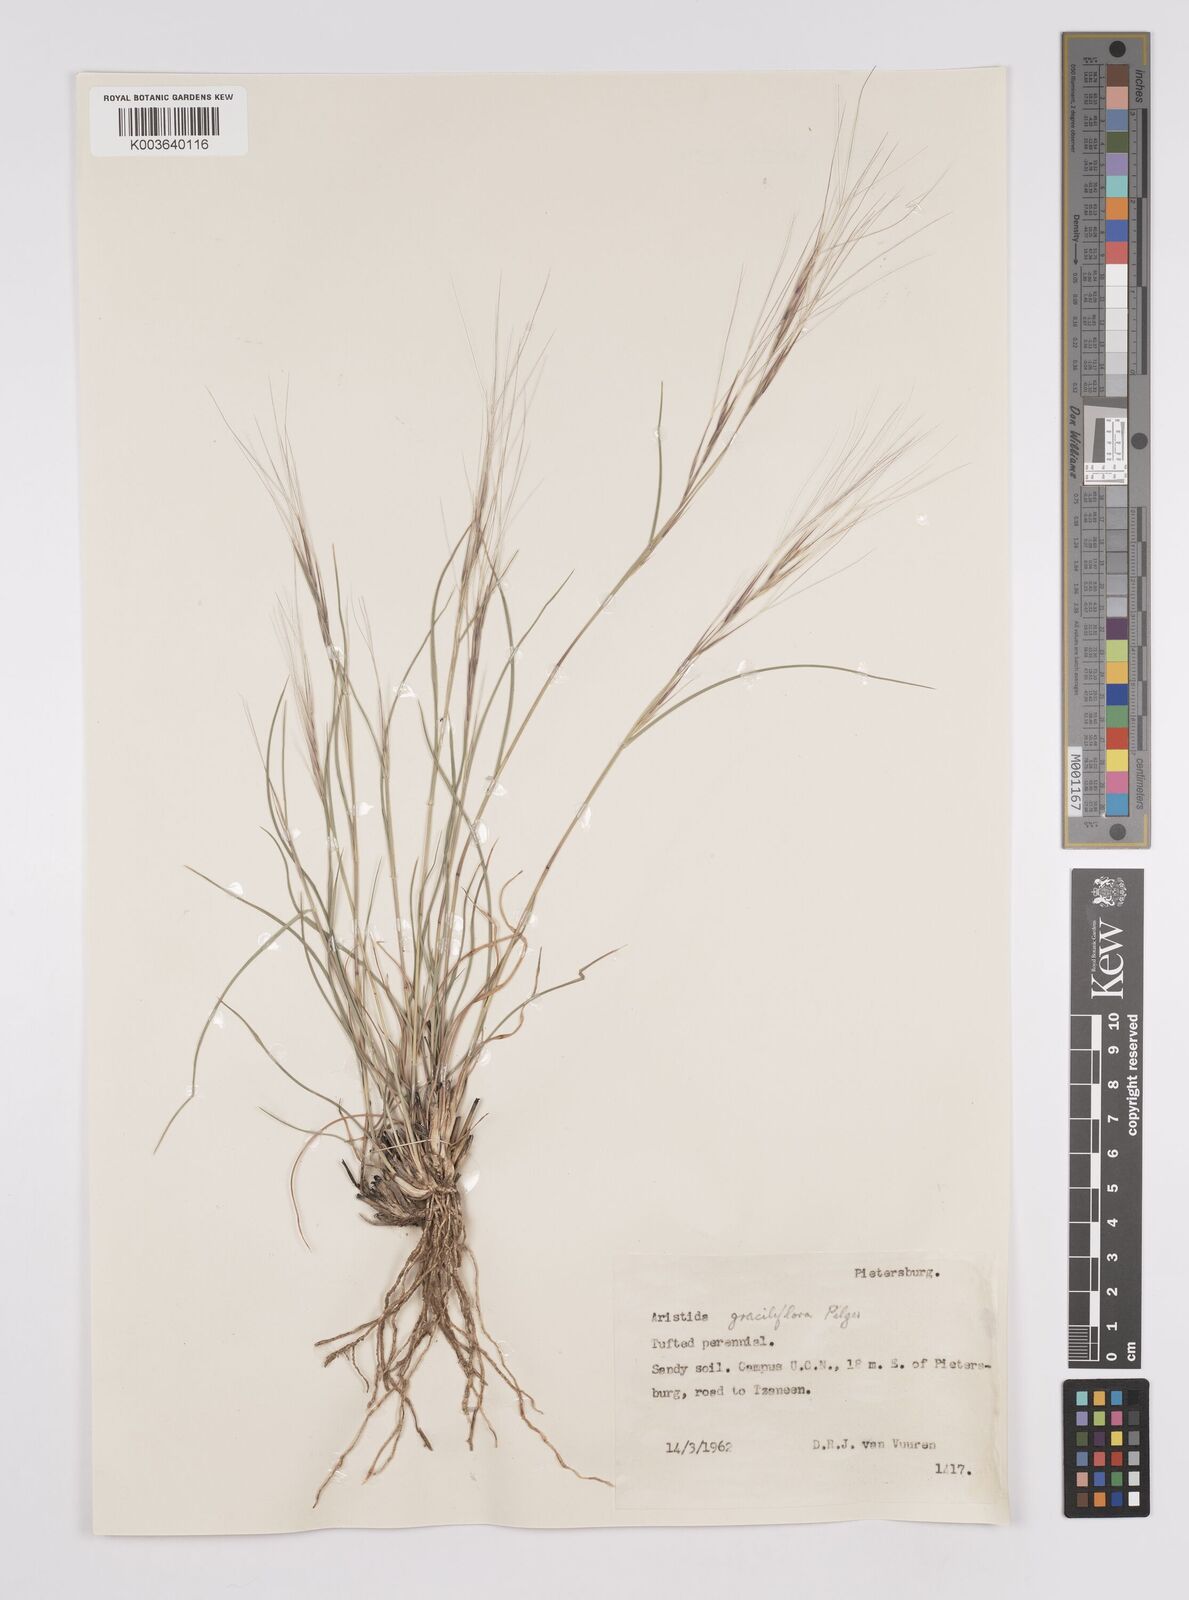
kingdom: Plantae
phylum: Tracheophyta
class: Liliopsida
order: Poales
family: Poaceae
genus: Aristida
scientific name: Aristida stipitata
